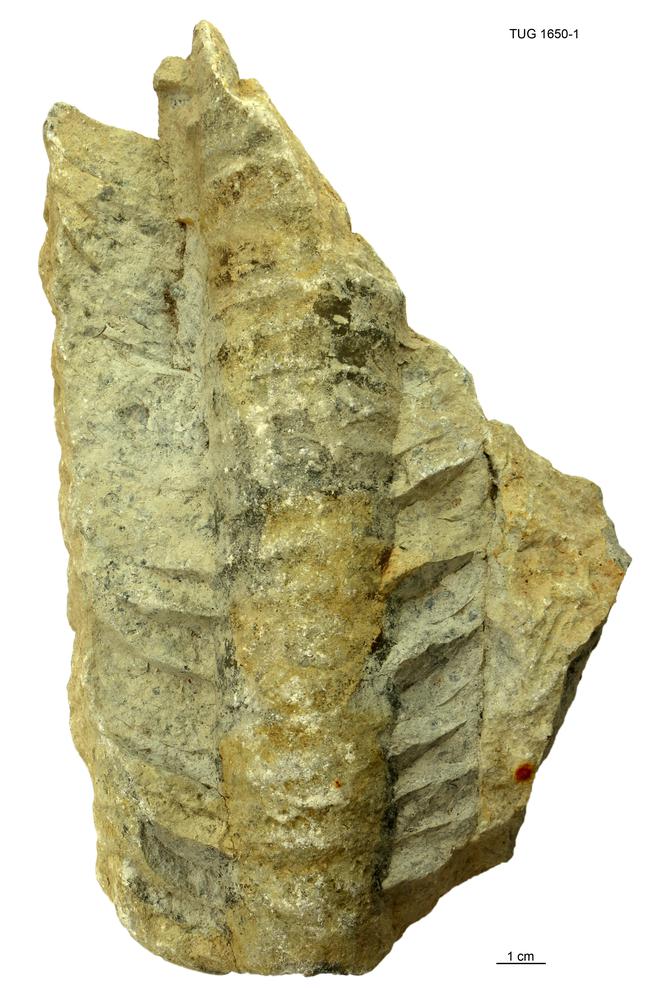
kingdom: Animalia
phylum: Mollusca
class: Cephalopoda
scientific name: Cephalopoda
